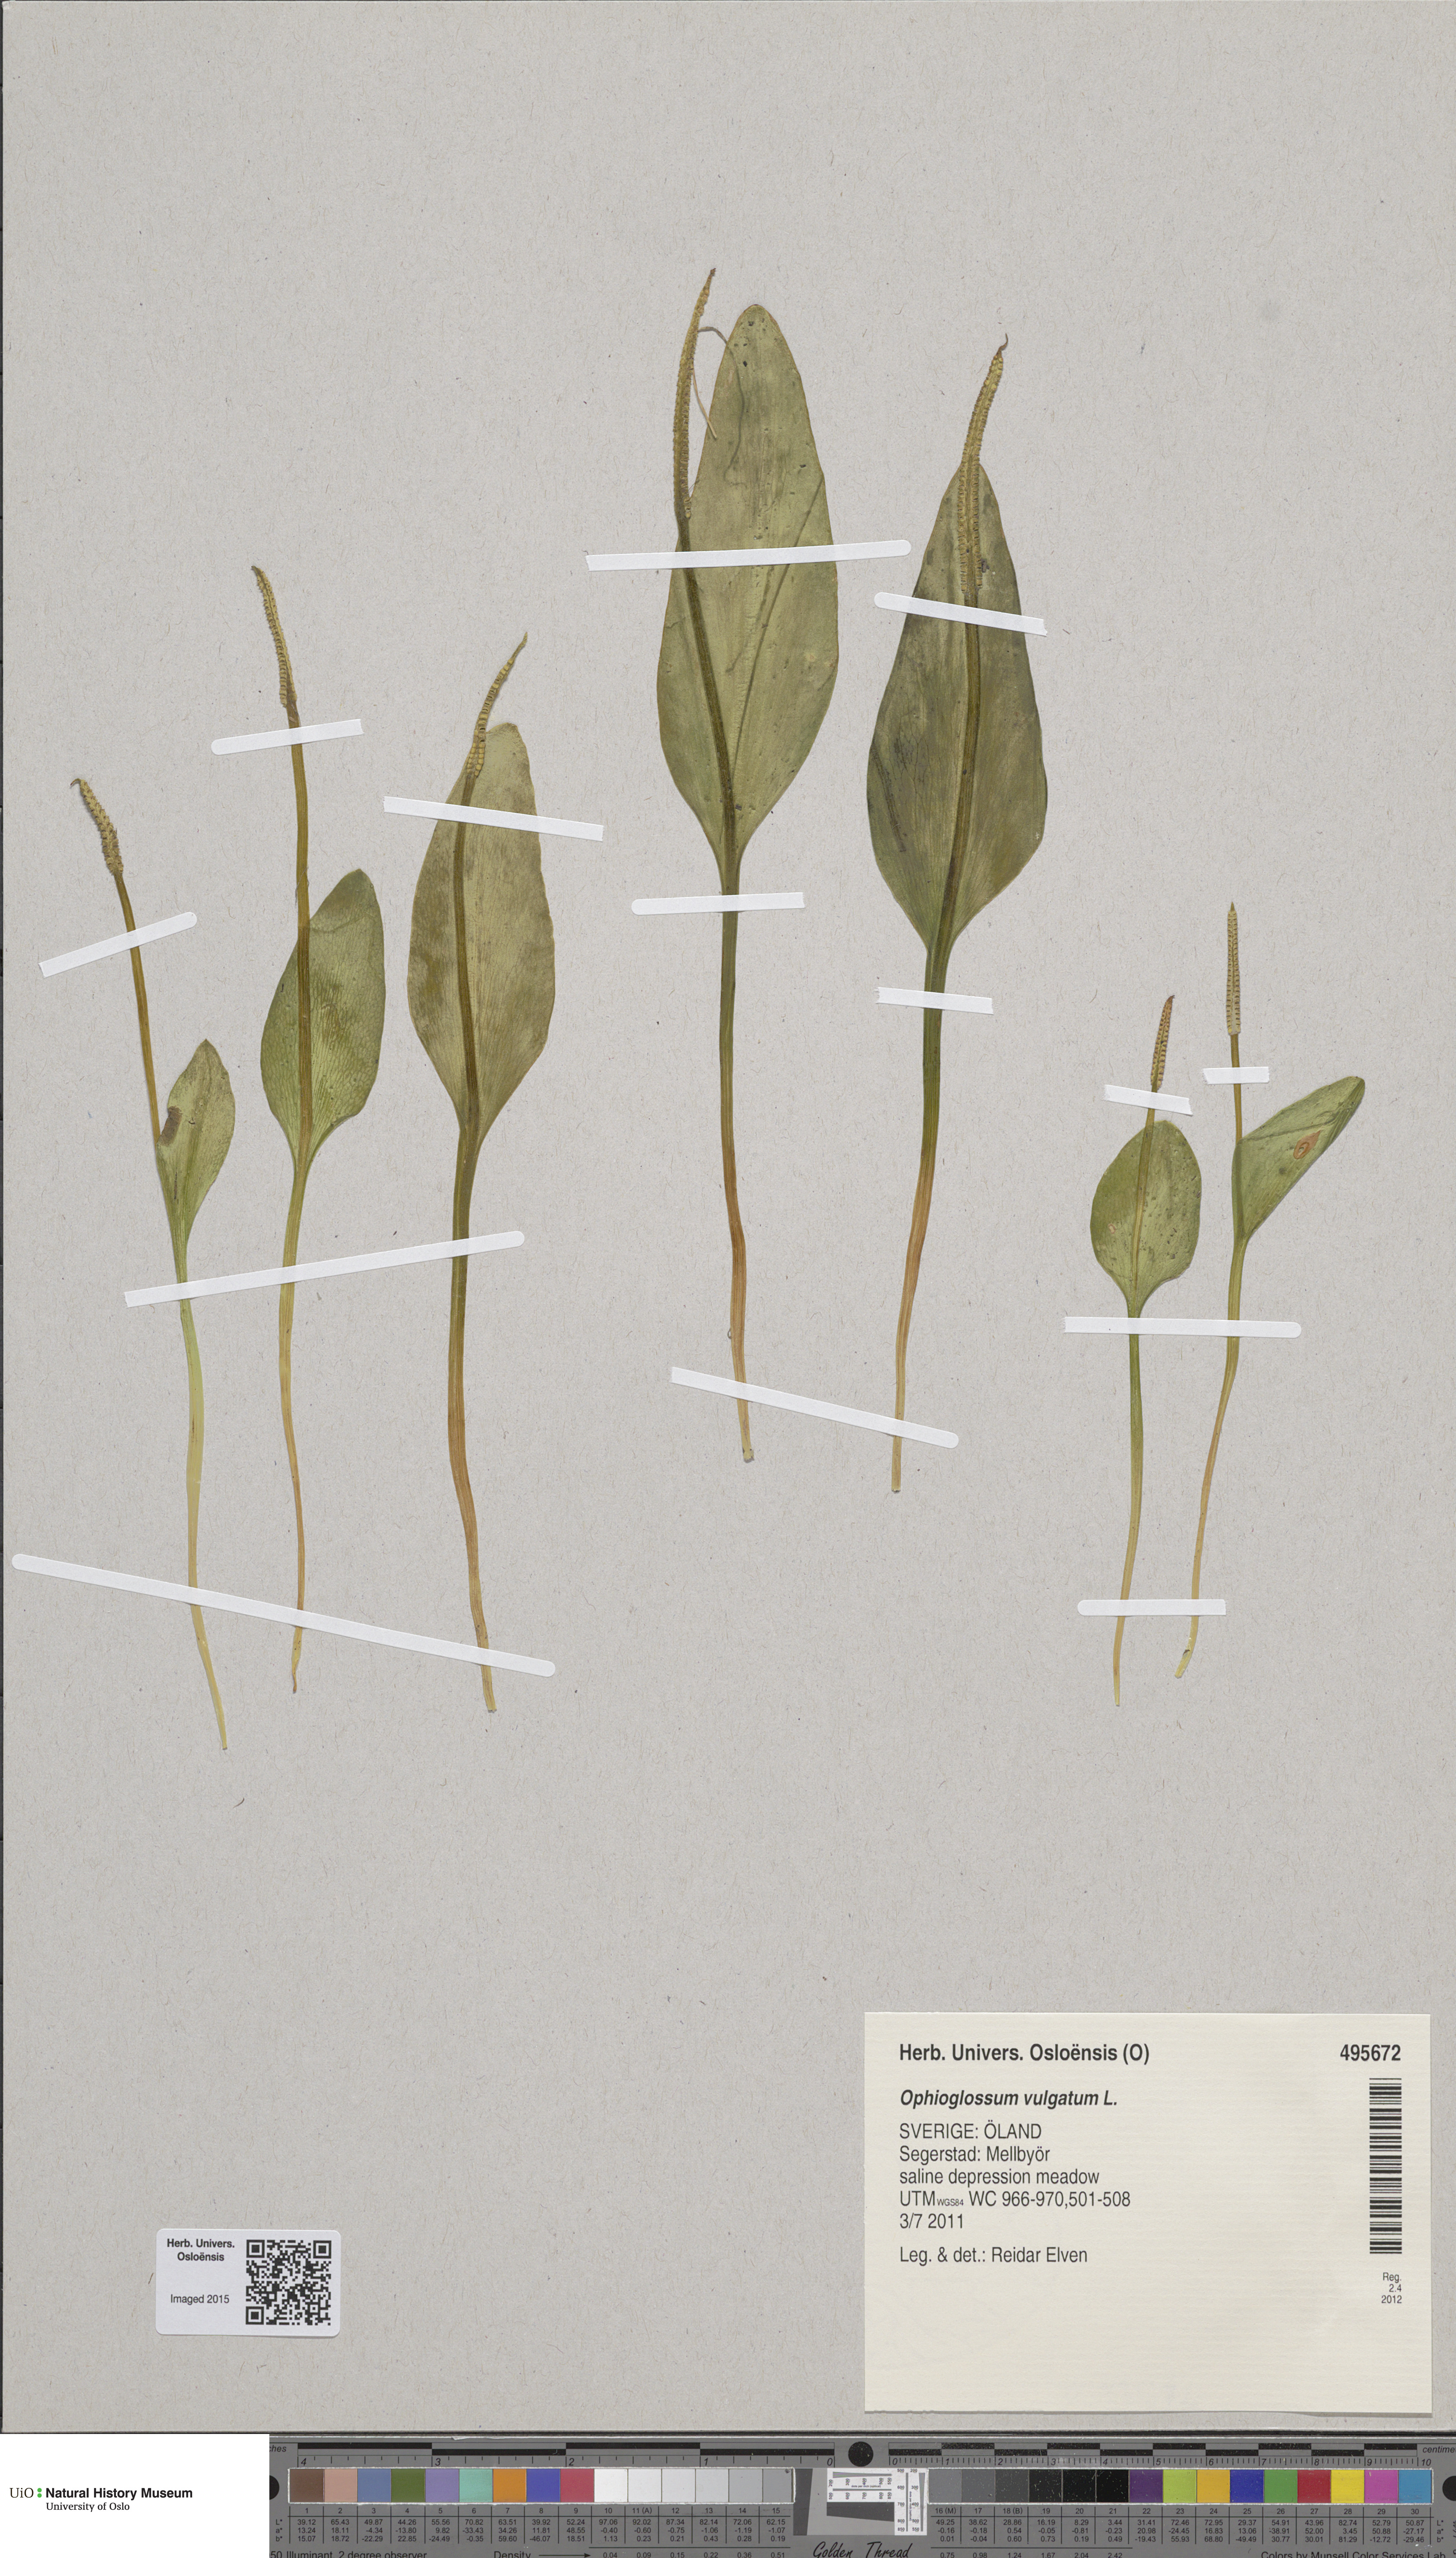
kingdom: Plantae
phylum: Tracheophyta
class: Polypodiopsida
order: Ophioglossales
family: Ophioglossaceae
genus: Ophioglossum
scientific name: Ophioglossum vulgatum
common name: Adder's-tongue
